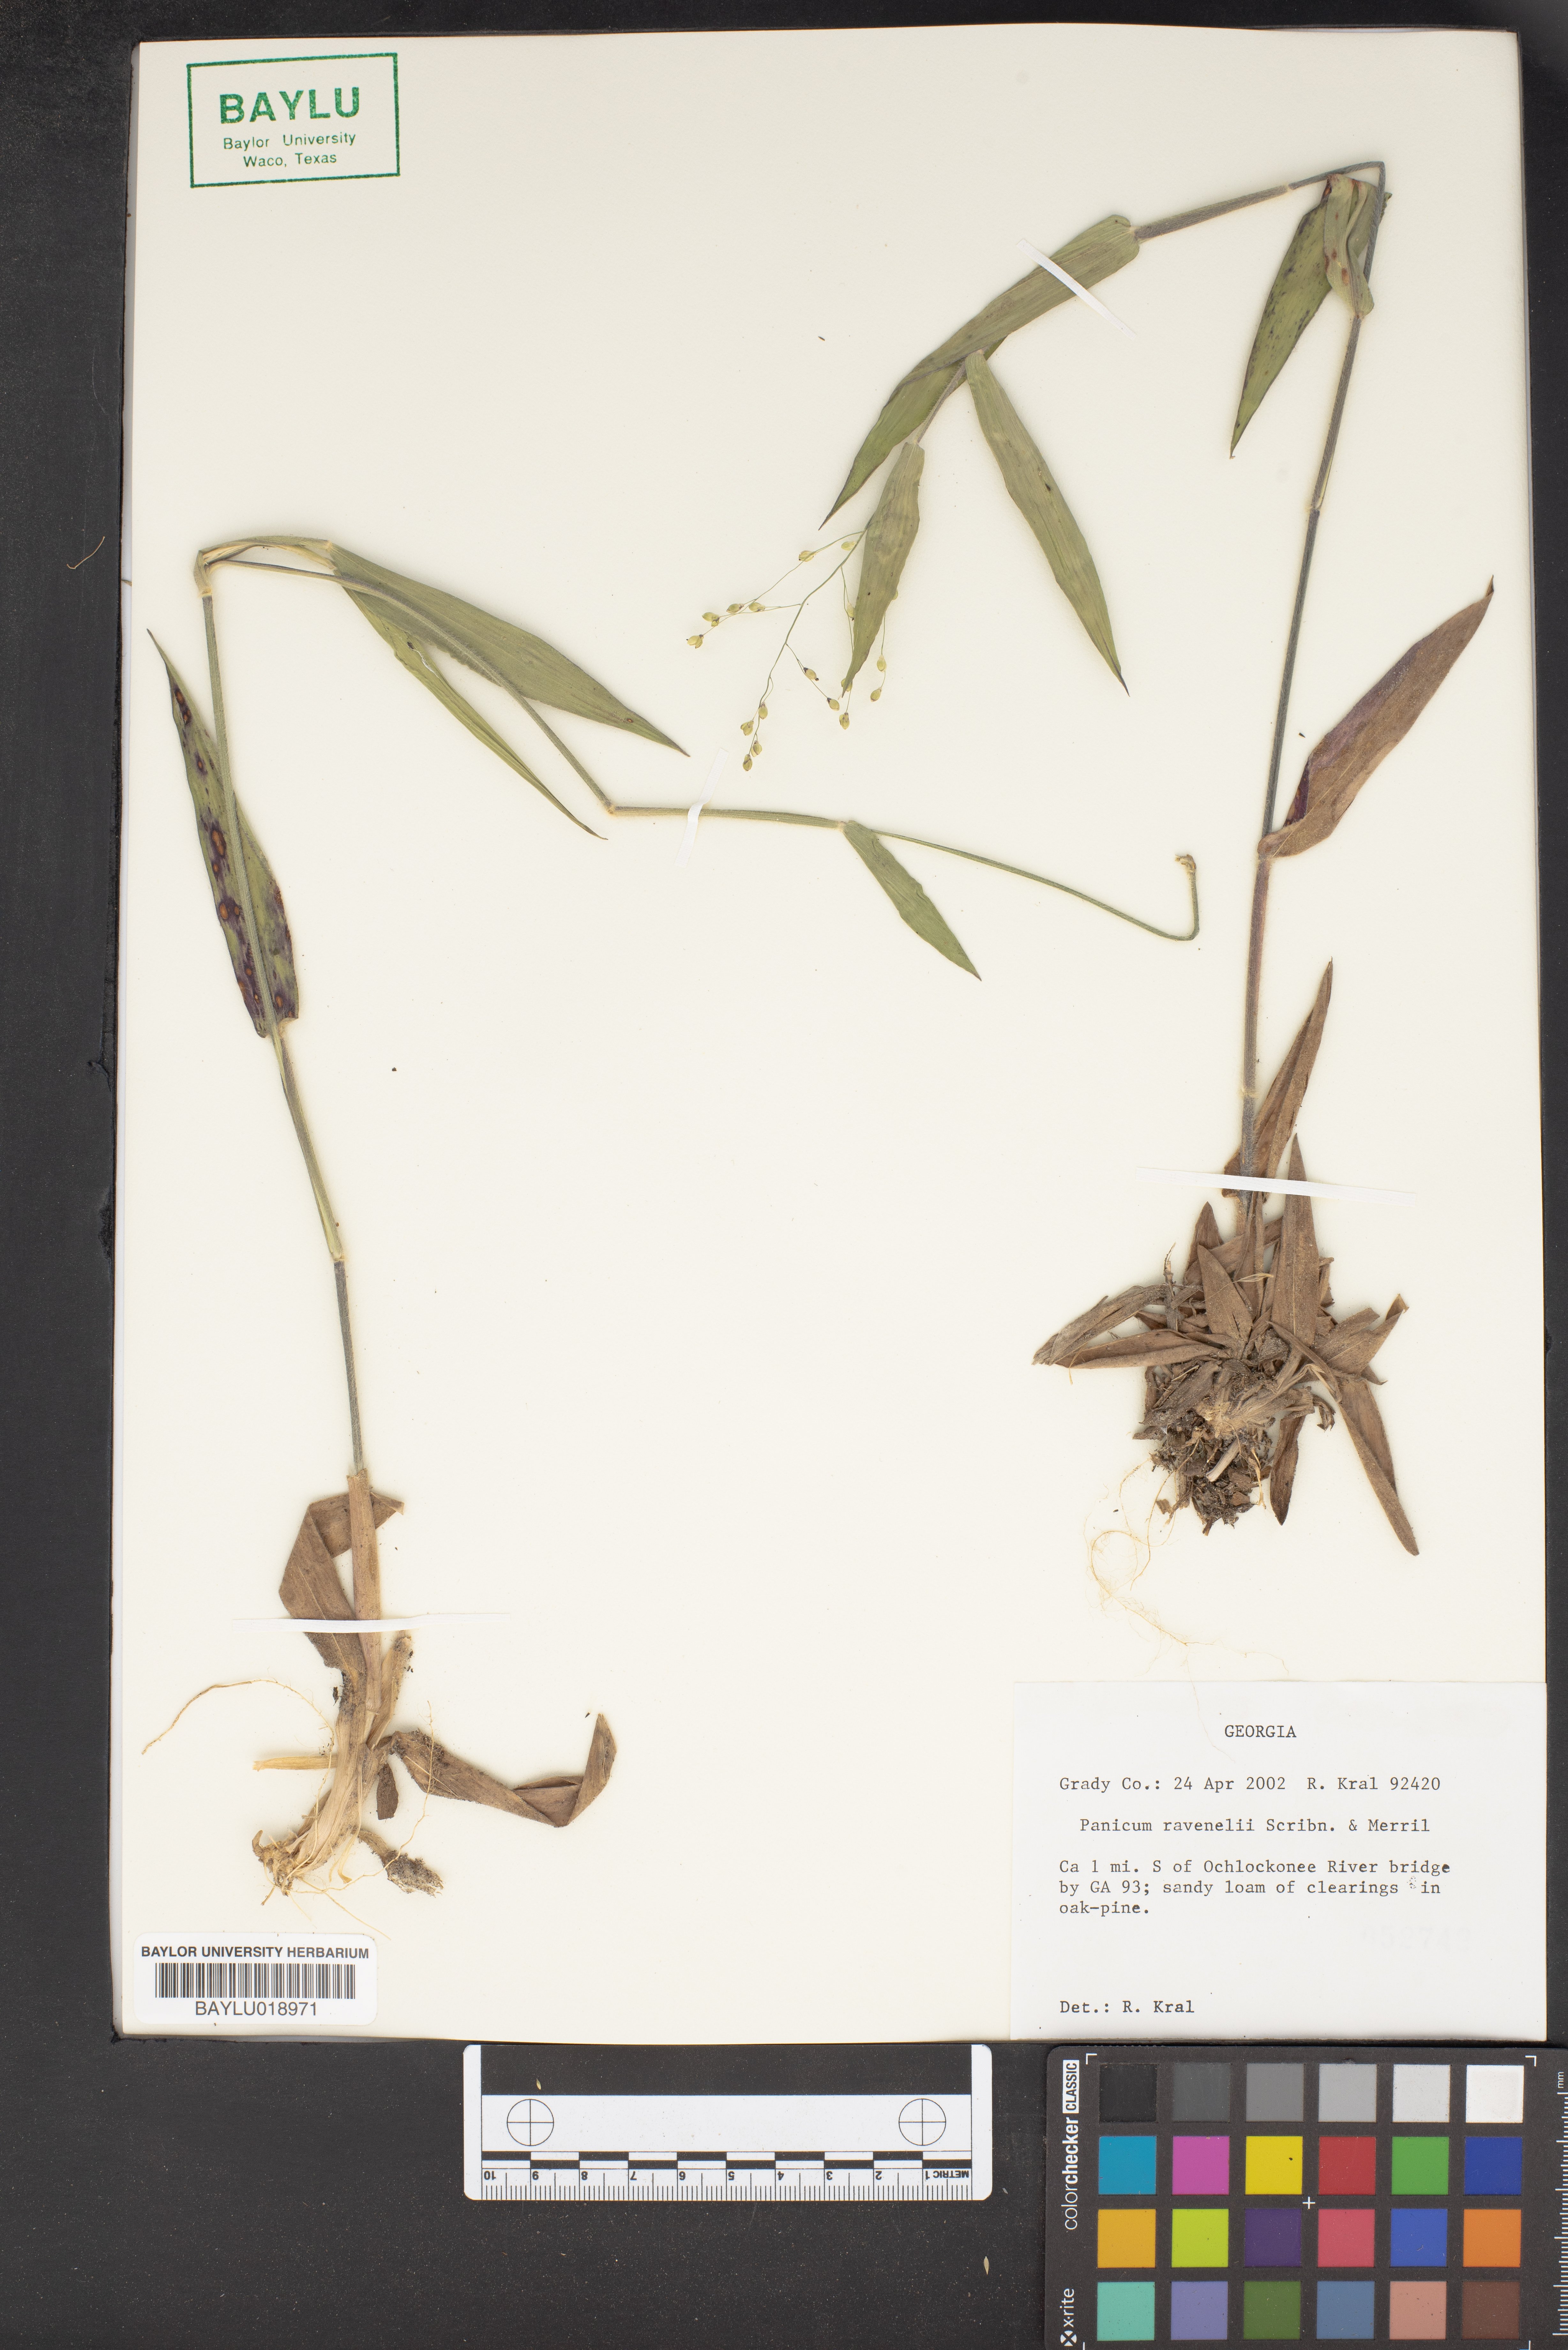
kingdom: Plantae
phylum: Tracheophyta
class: Liliopsida
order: Poales
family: Poaceae
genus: Dichanthelium
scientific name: Dichanthelium ravenelii
